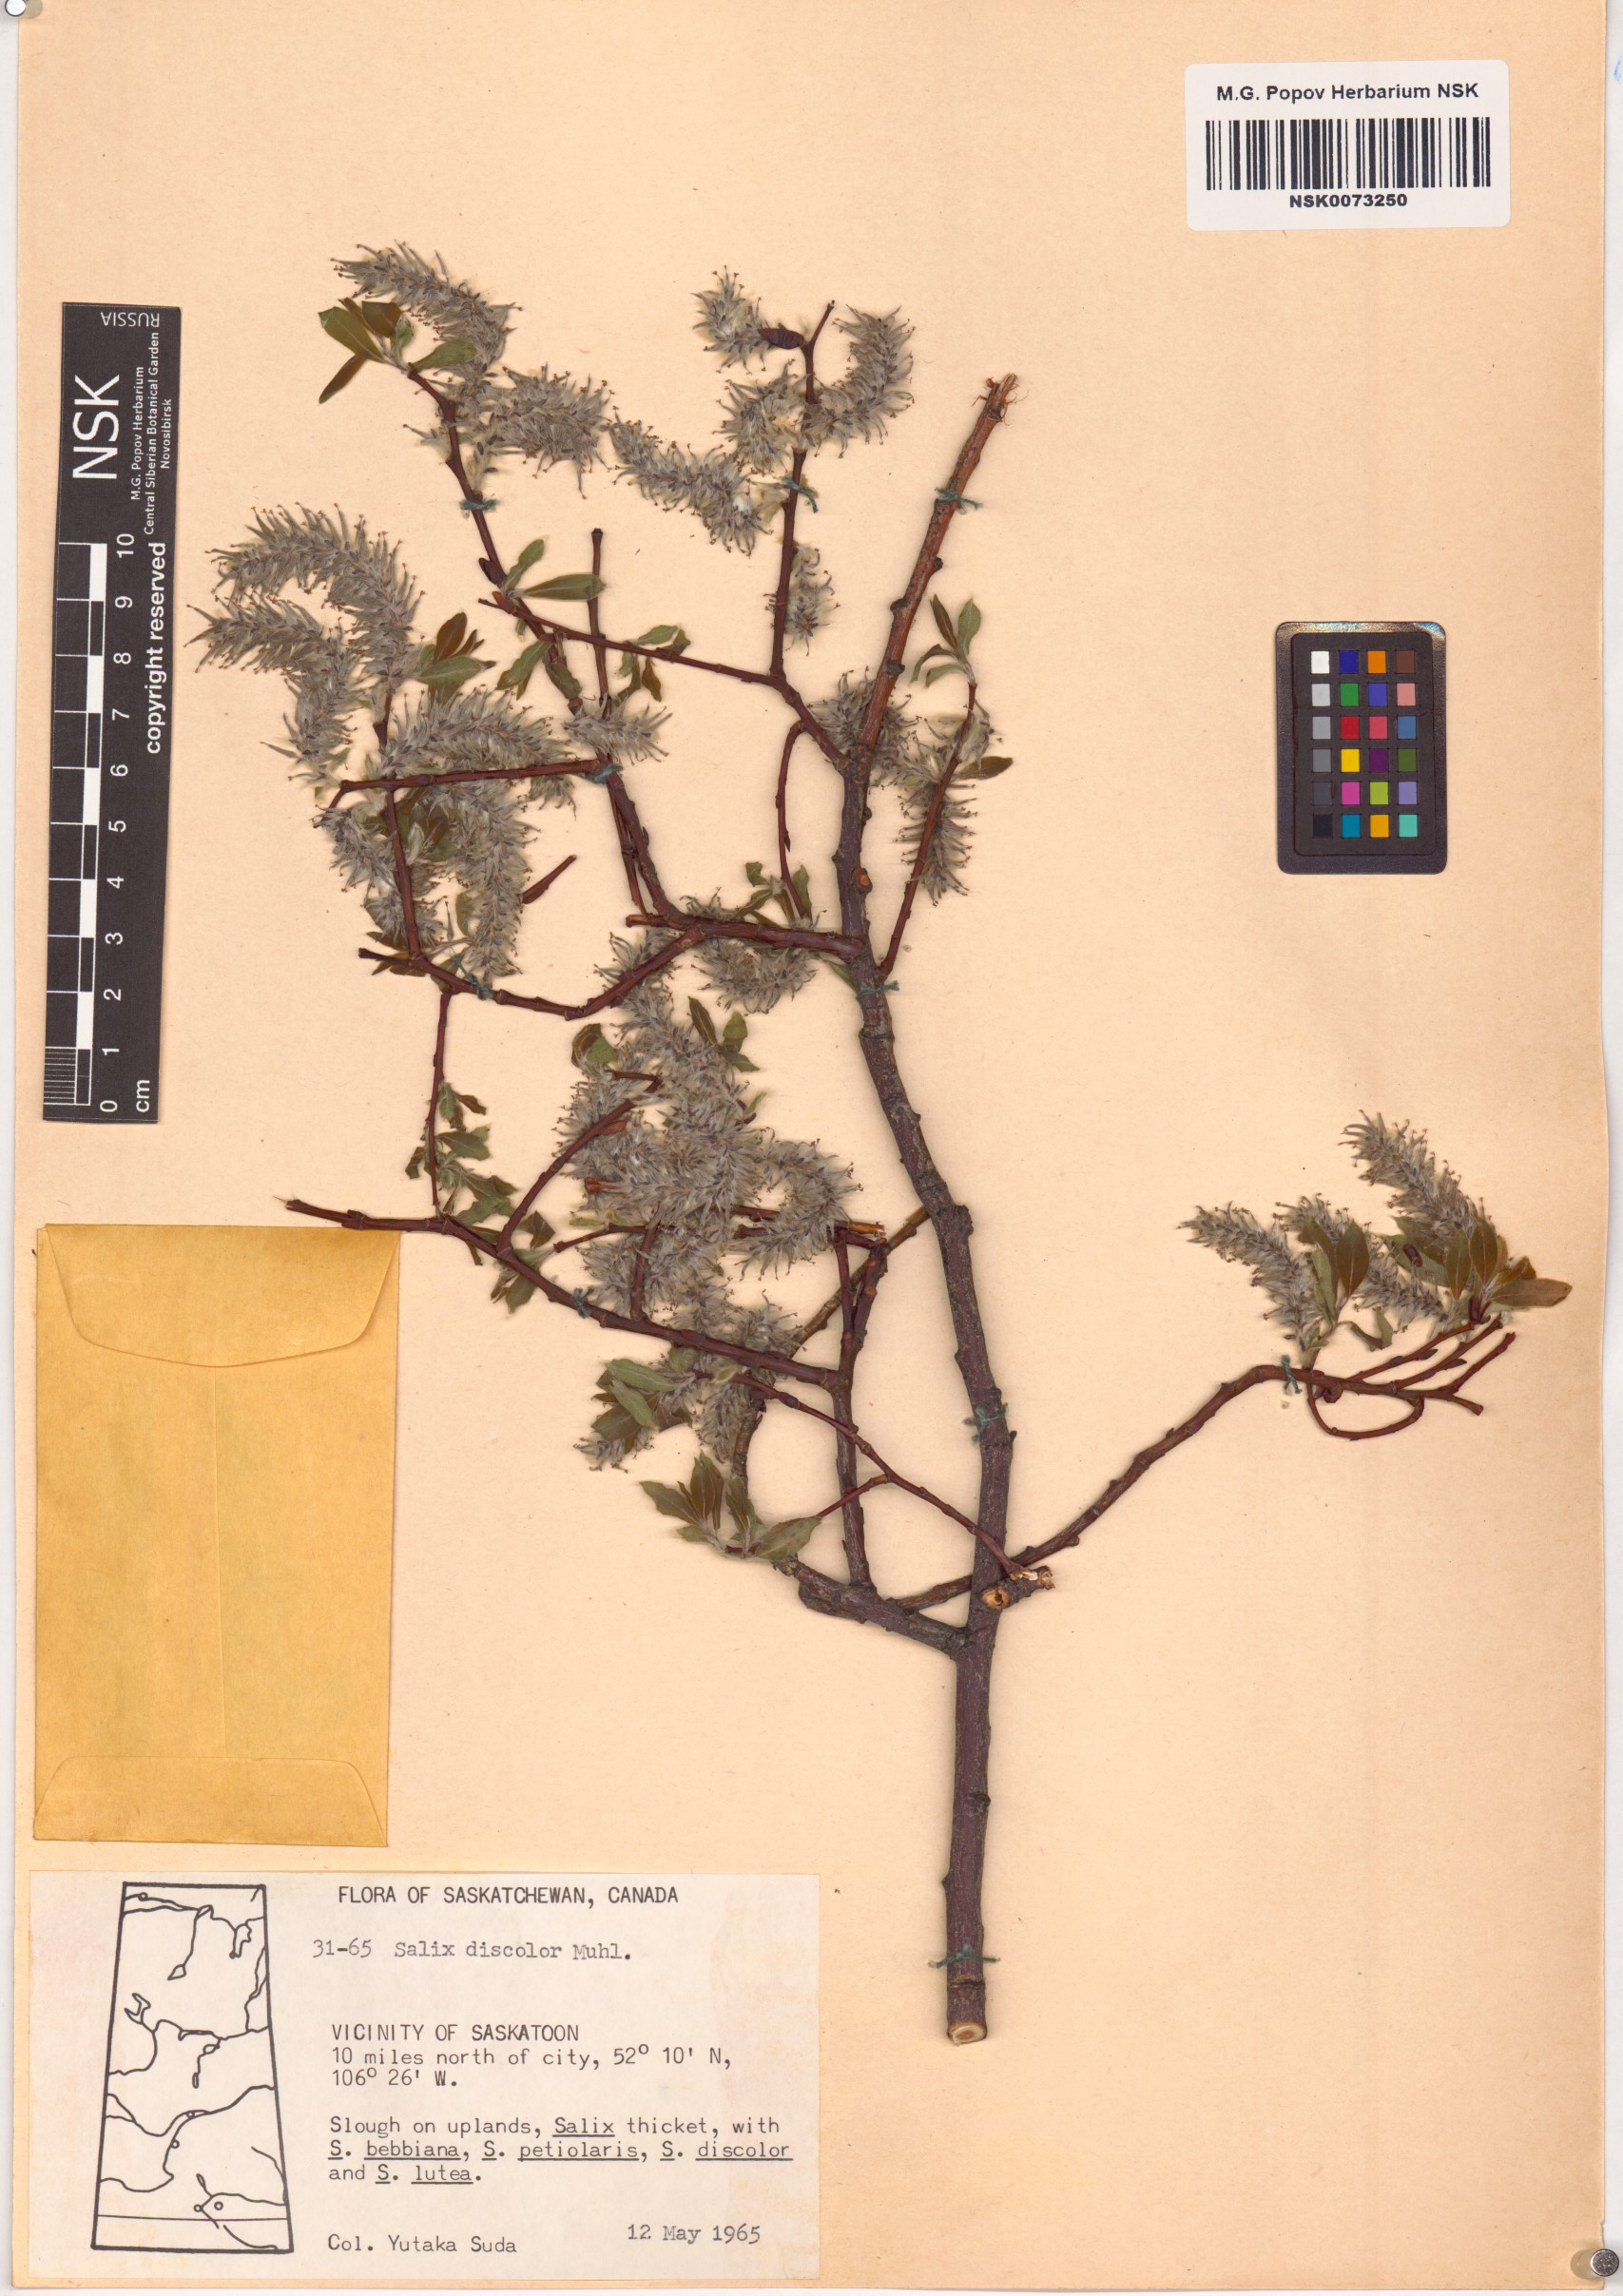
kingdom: Plantae
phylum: Tracheophyta
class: Magnoliopsida
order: Malpighiales
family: Salicaceae
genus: Salix
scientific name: Salix discolor
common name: Glaucous willow
